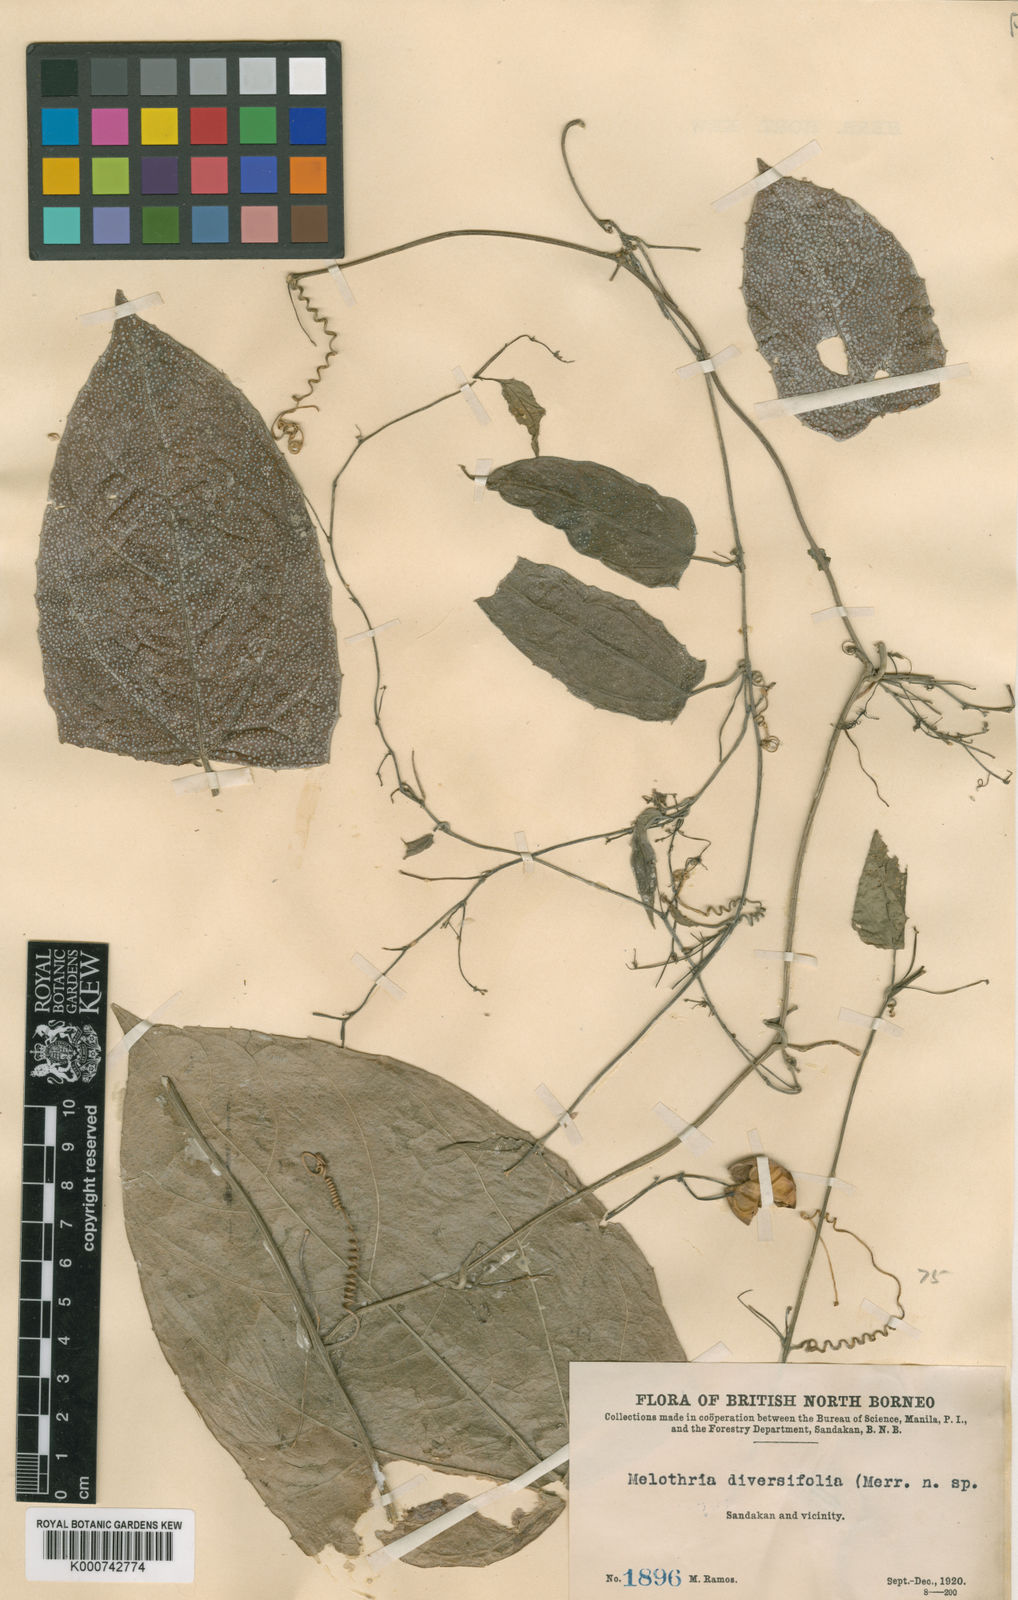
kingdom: Plantae
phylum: Tracheophyta
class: Magnoliopsida
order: Cucurbitales
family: Cucurbitaceae
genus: Zehneria
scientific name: Zehneria
